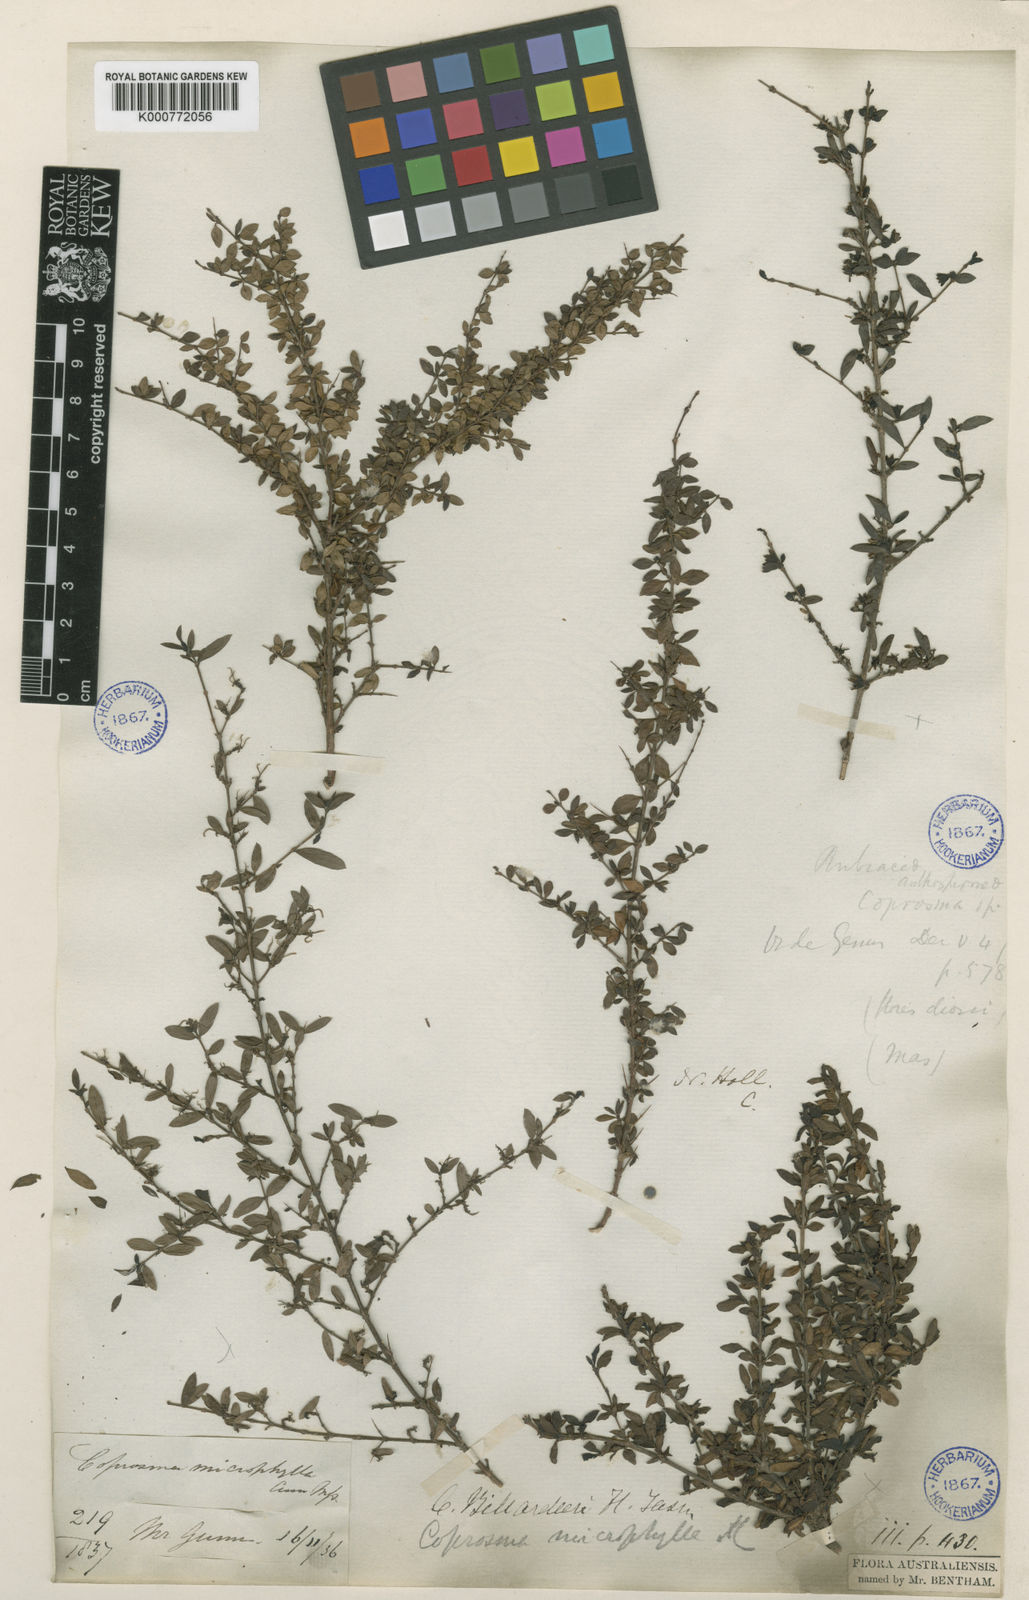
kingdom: Plantae
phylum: Tracheophyta
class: Magnoliopsida
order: Gentianales
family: Rubiaceae
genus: Coprosma
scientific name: Coprosma quadrifida
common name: Prickly currantbush
